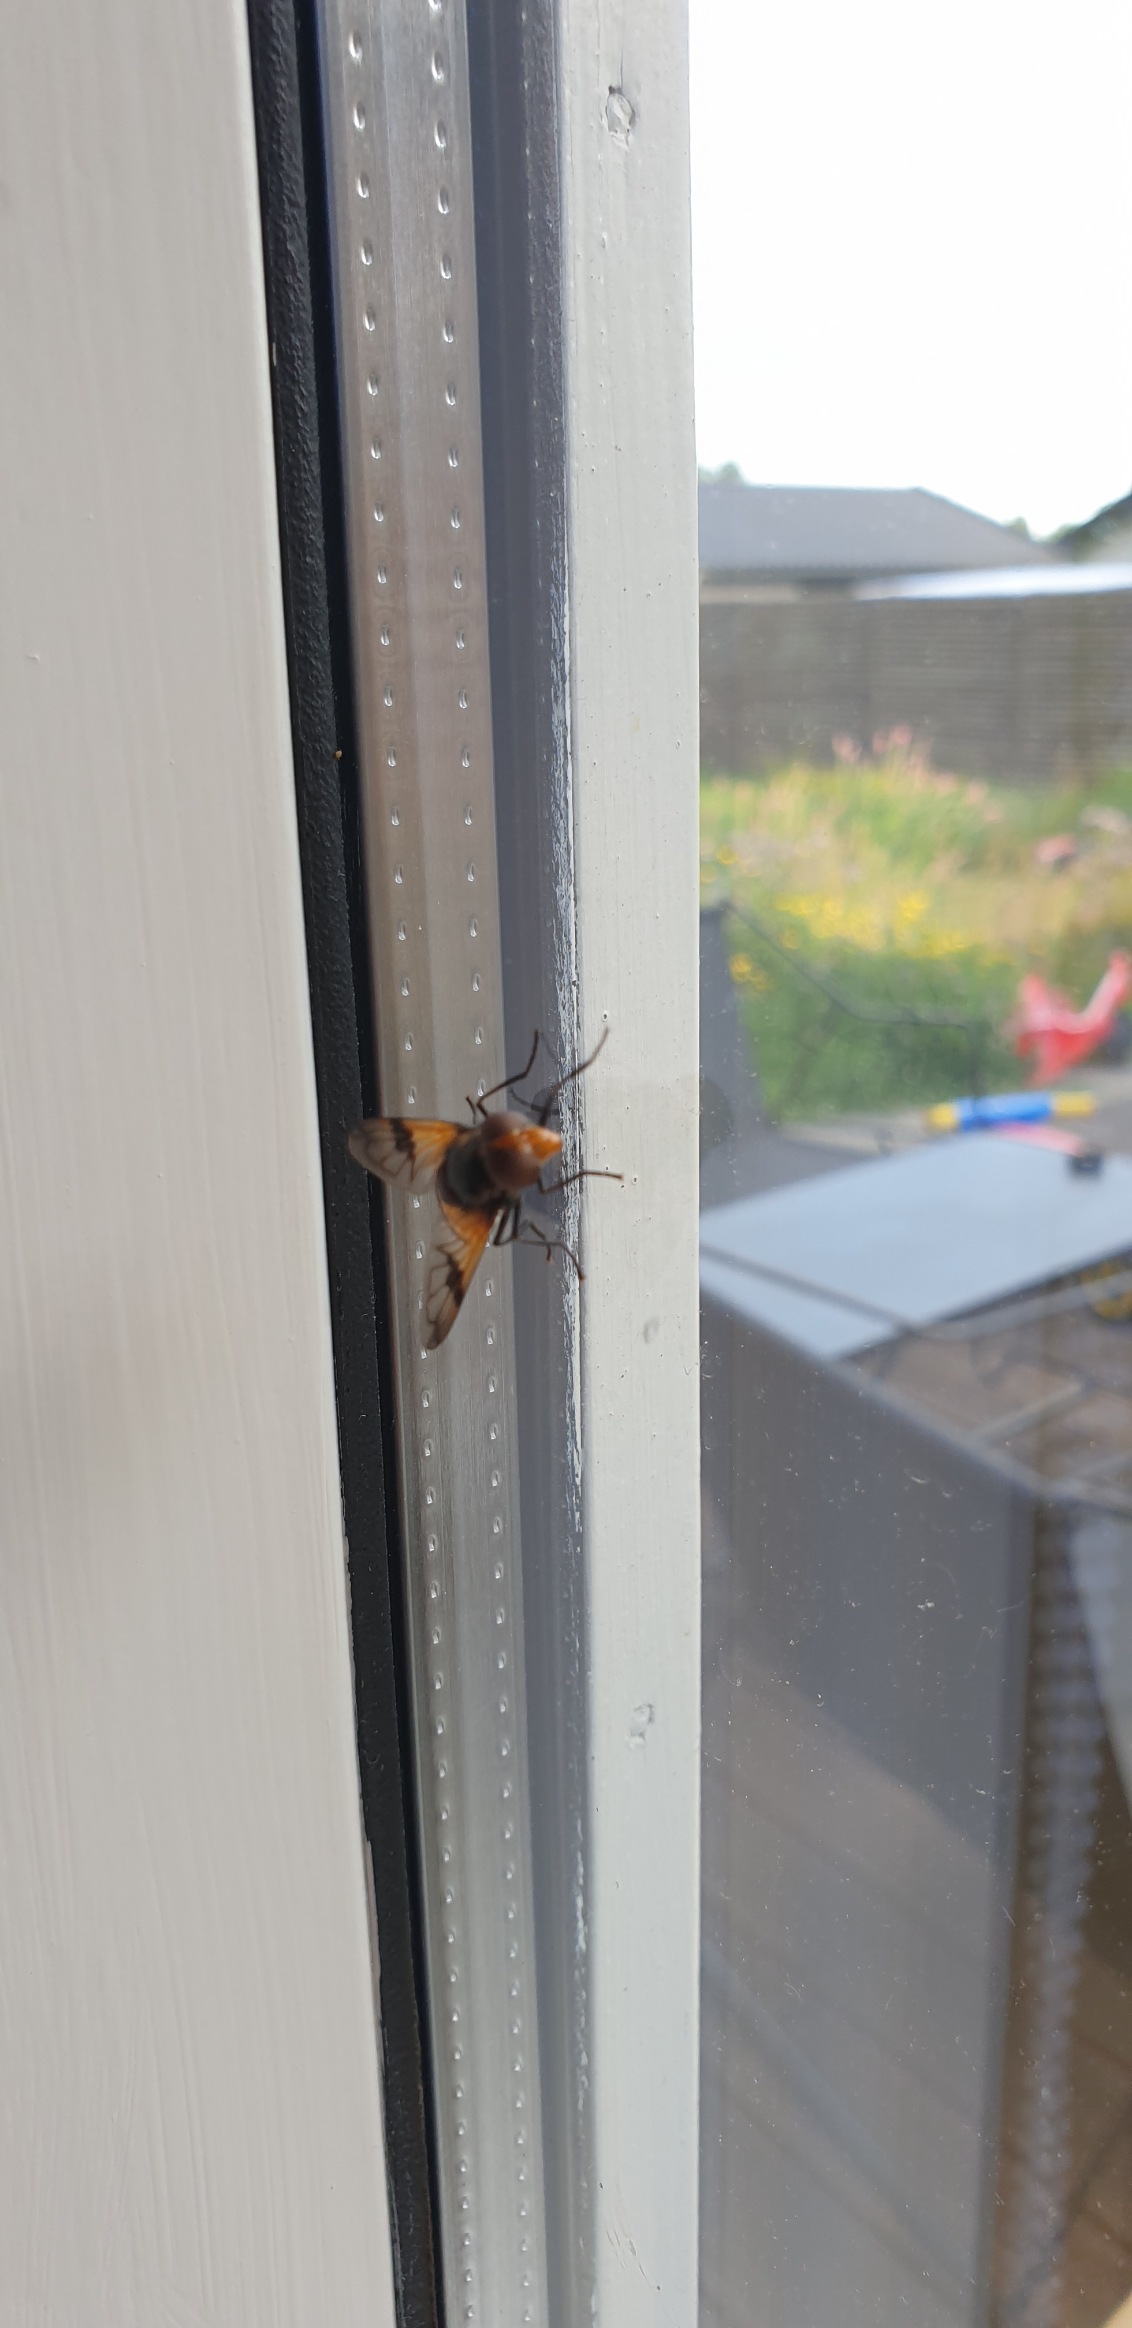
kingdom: Animalia
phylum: Arthropoda
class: Insecta
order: Diptera
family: Syrphidae
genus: Volucella
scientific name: Volucella pellucens
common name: Hvidbåndet humlesvirreflue
